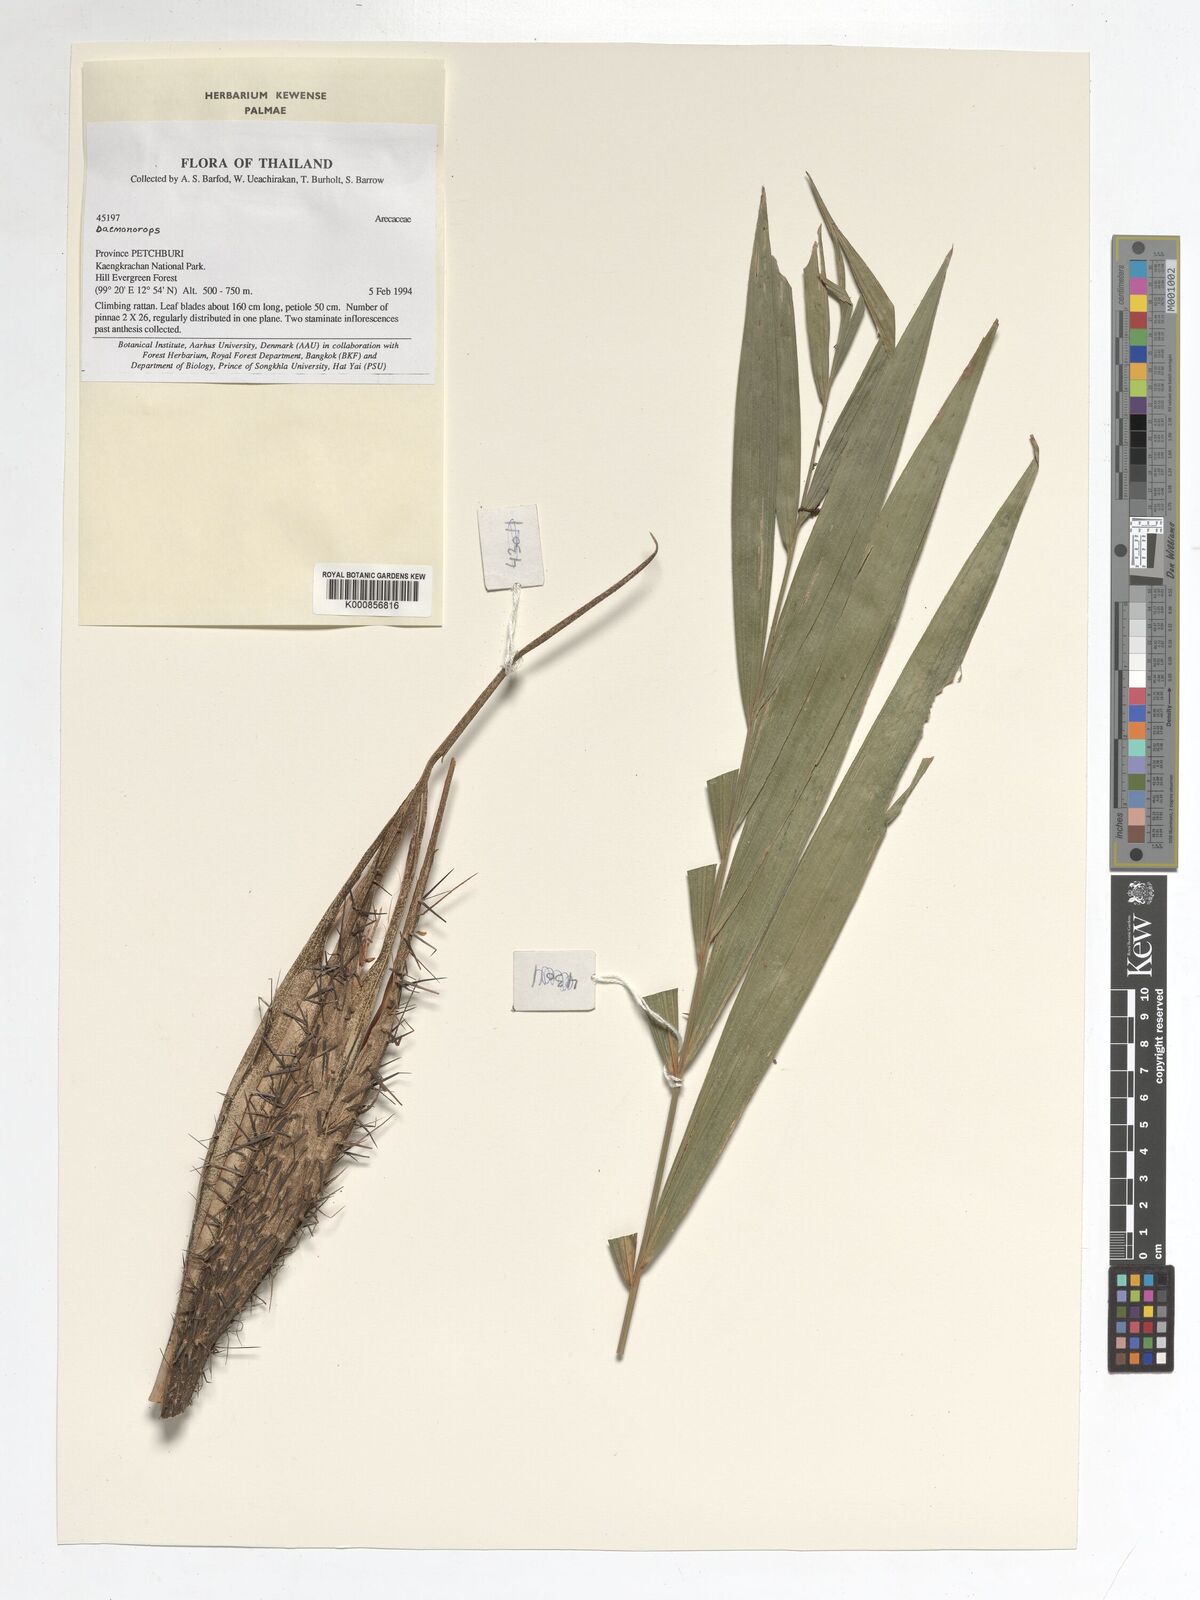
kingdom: Plantae
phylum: Tracheophyta
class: Liliopsida
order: Arecales
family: Arecaceae
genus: Daemonorops
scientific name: Daemonorops
